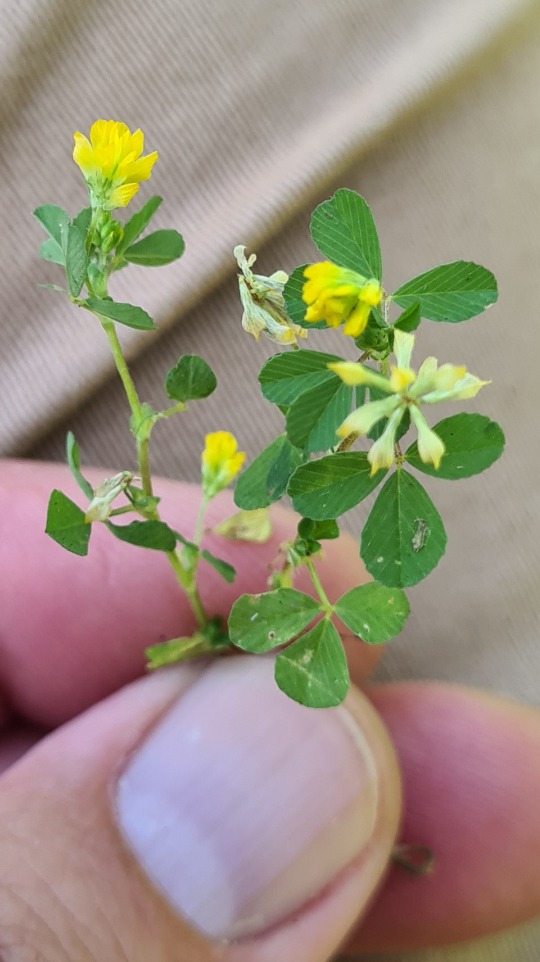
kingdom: Plantae
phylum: Tracheophyta
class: Magnoliopsida
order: Fabales
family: Fabaceae
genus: Trifolium
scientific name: Trifolium dubium
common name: Fin kløver
